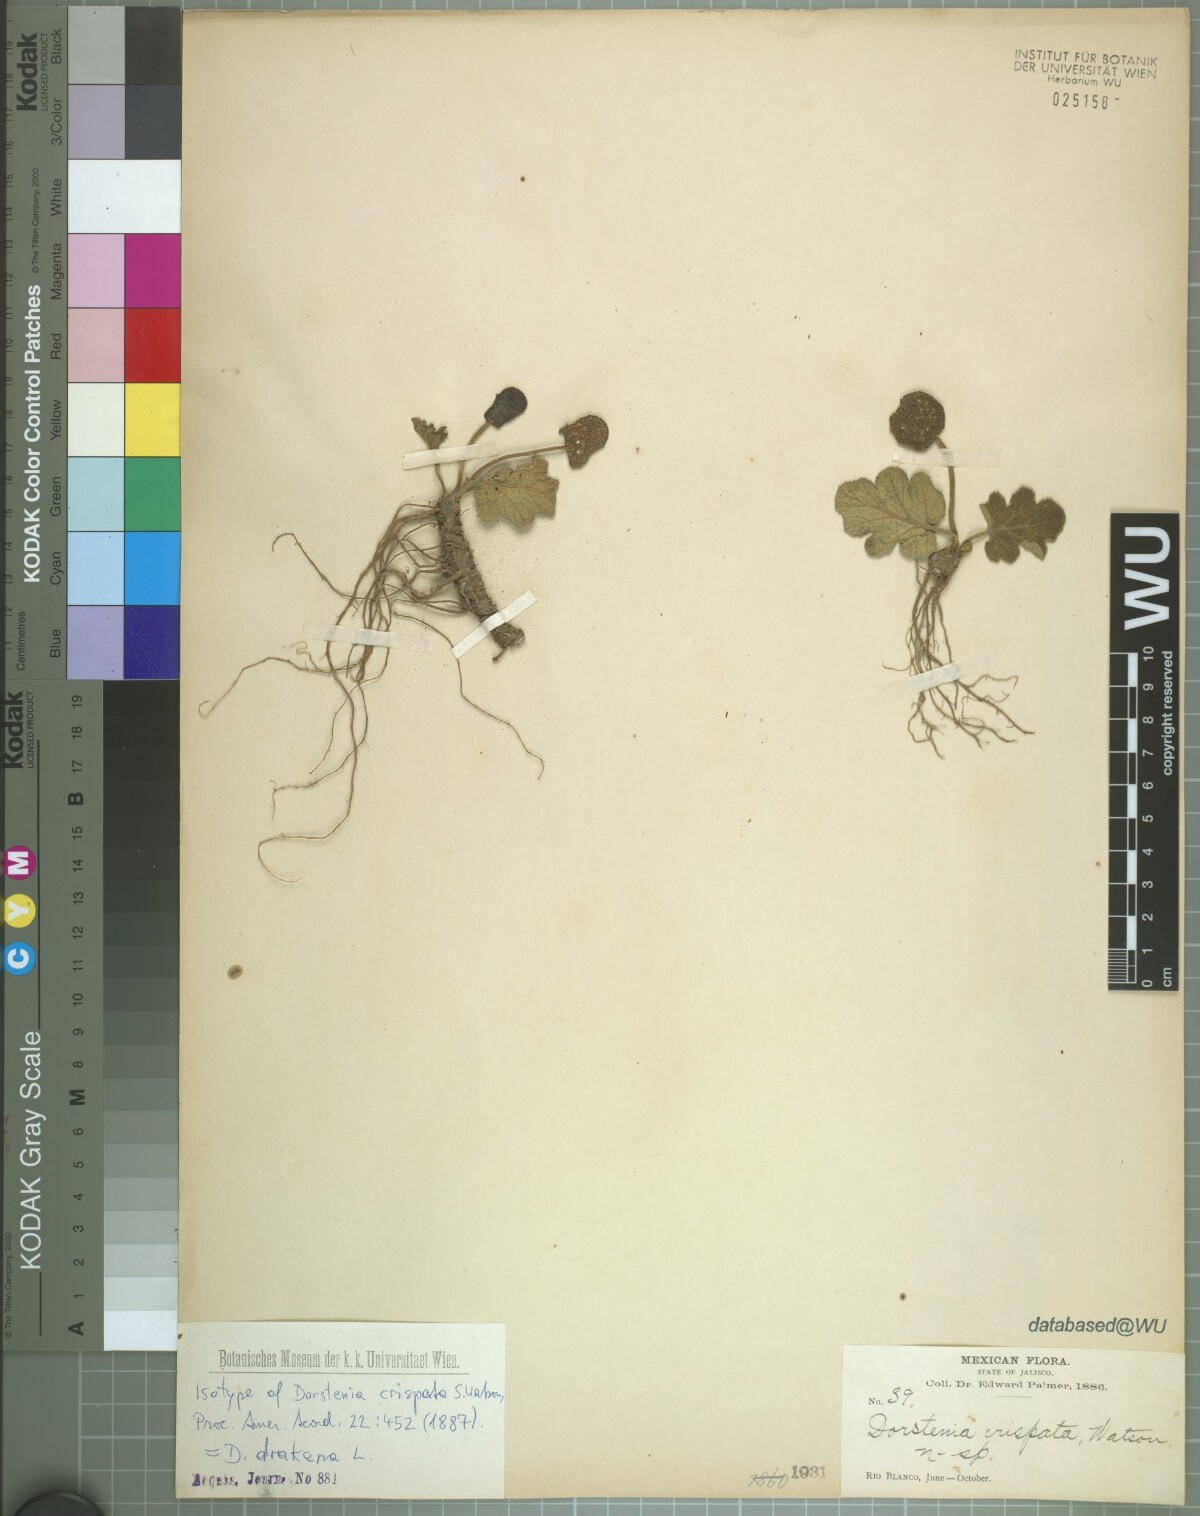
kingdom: Plantae
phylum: Tracheophyta
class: Magnoliopsida
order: Rosales
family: Moraceae
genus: Dorstenia
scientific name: Dorstenia drakena
